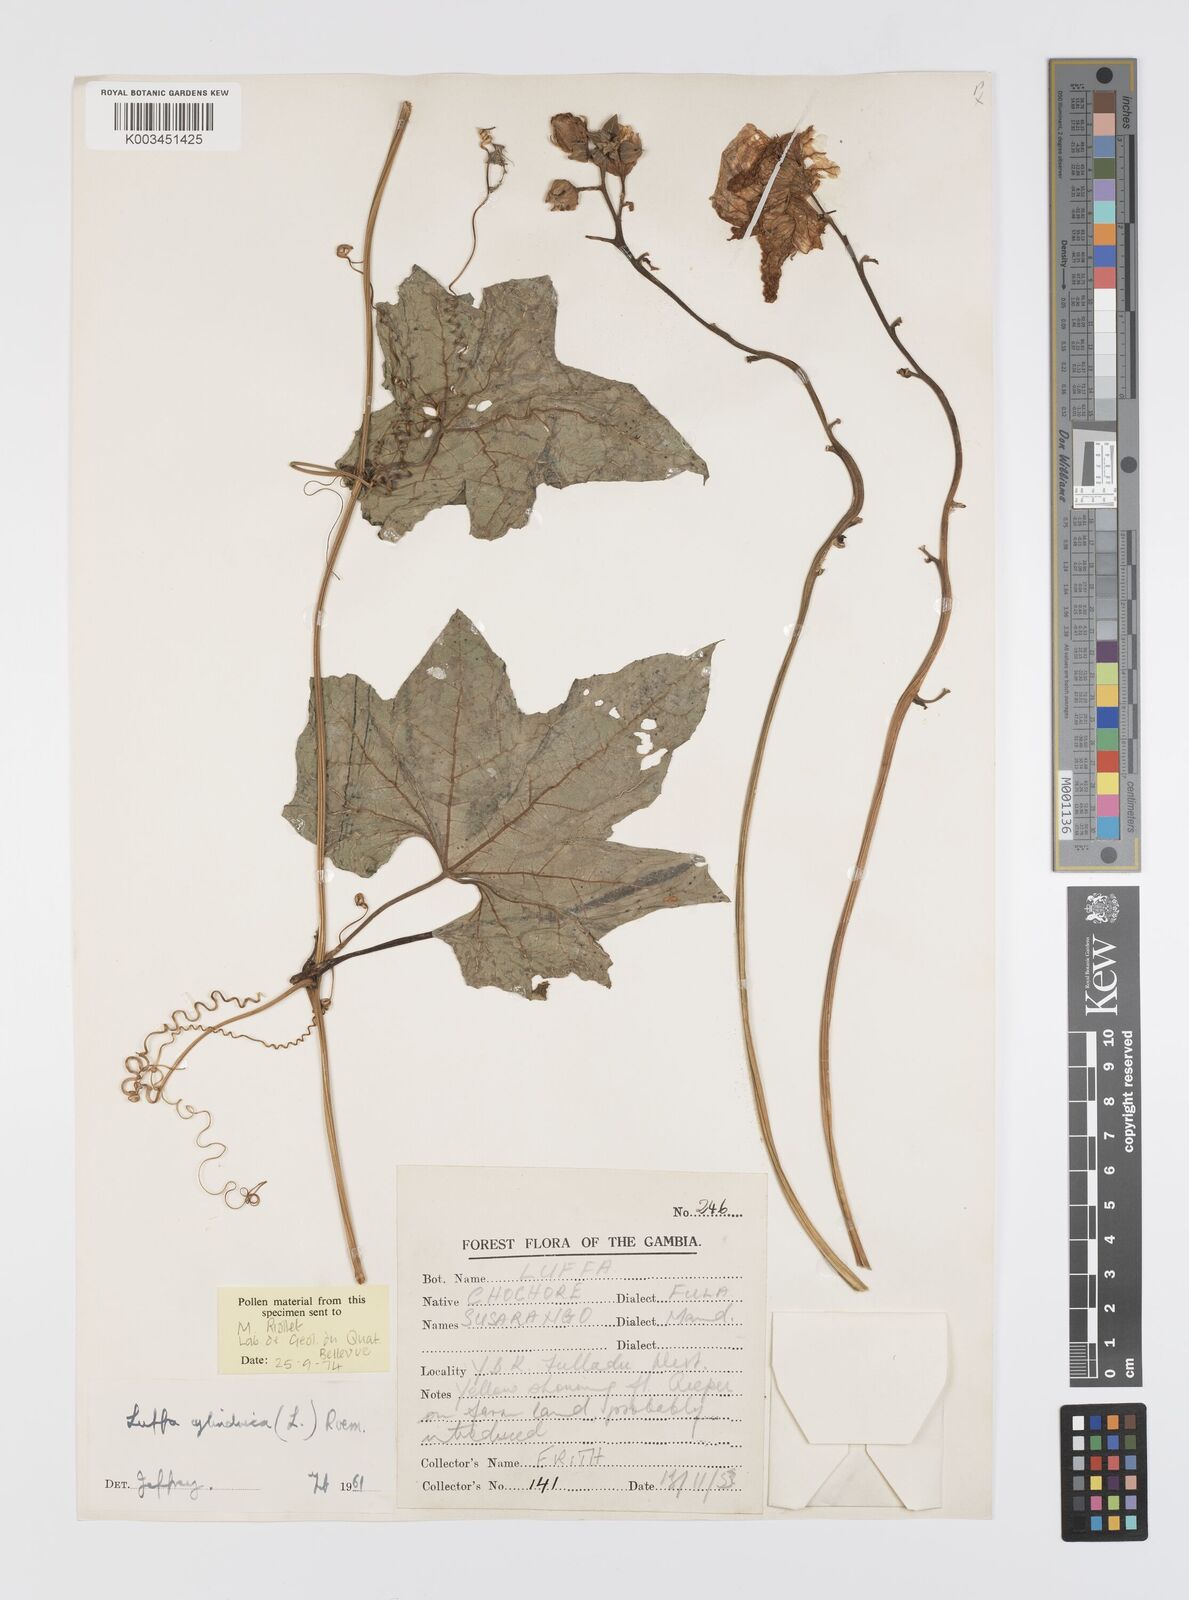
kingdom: Plantae
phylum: Tracheophyta
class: Magnoliopsida
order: Cucurbitales
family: Cucurbitaceae
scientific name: Cucurbitaceae
